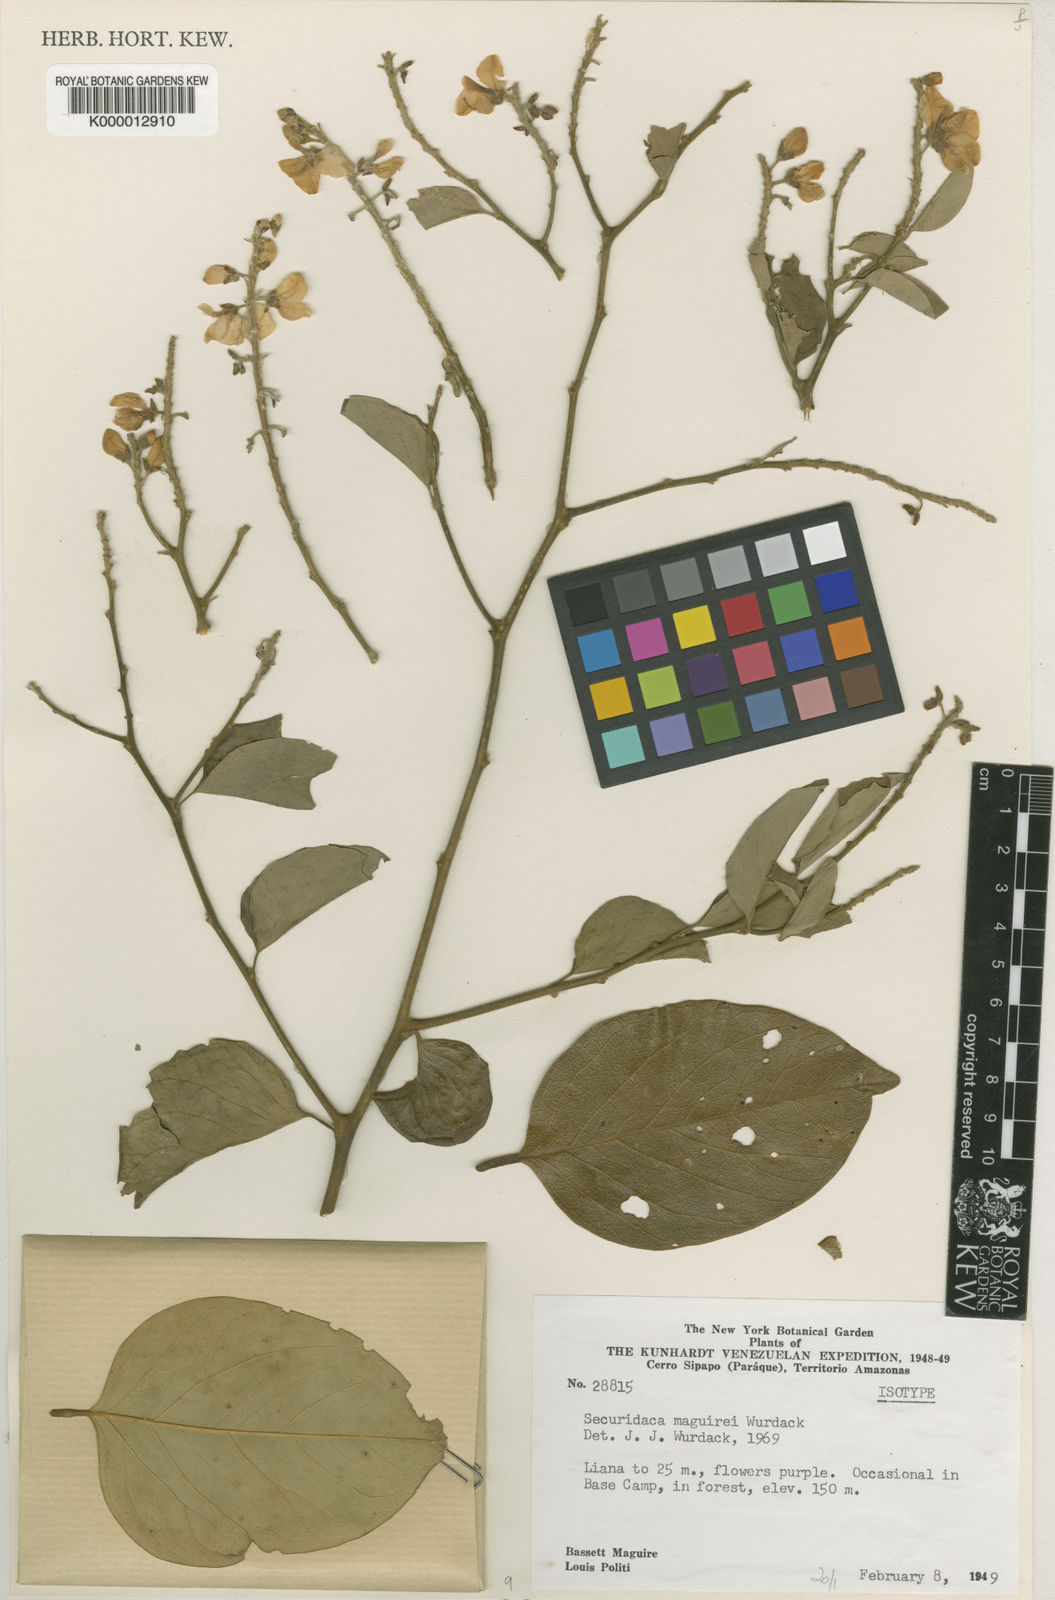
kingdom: Plantae
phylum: Tracheophyta
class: Magnoliopsida
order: Fabales
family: Polygalaceae
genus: Securidaca
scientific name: Securidaca maguirei
